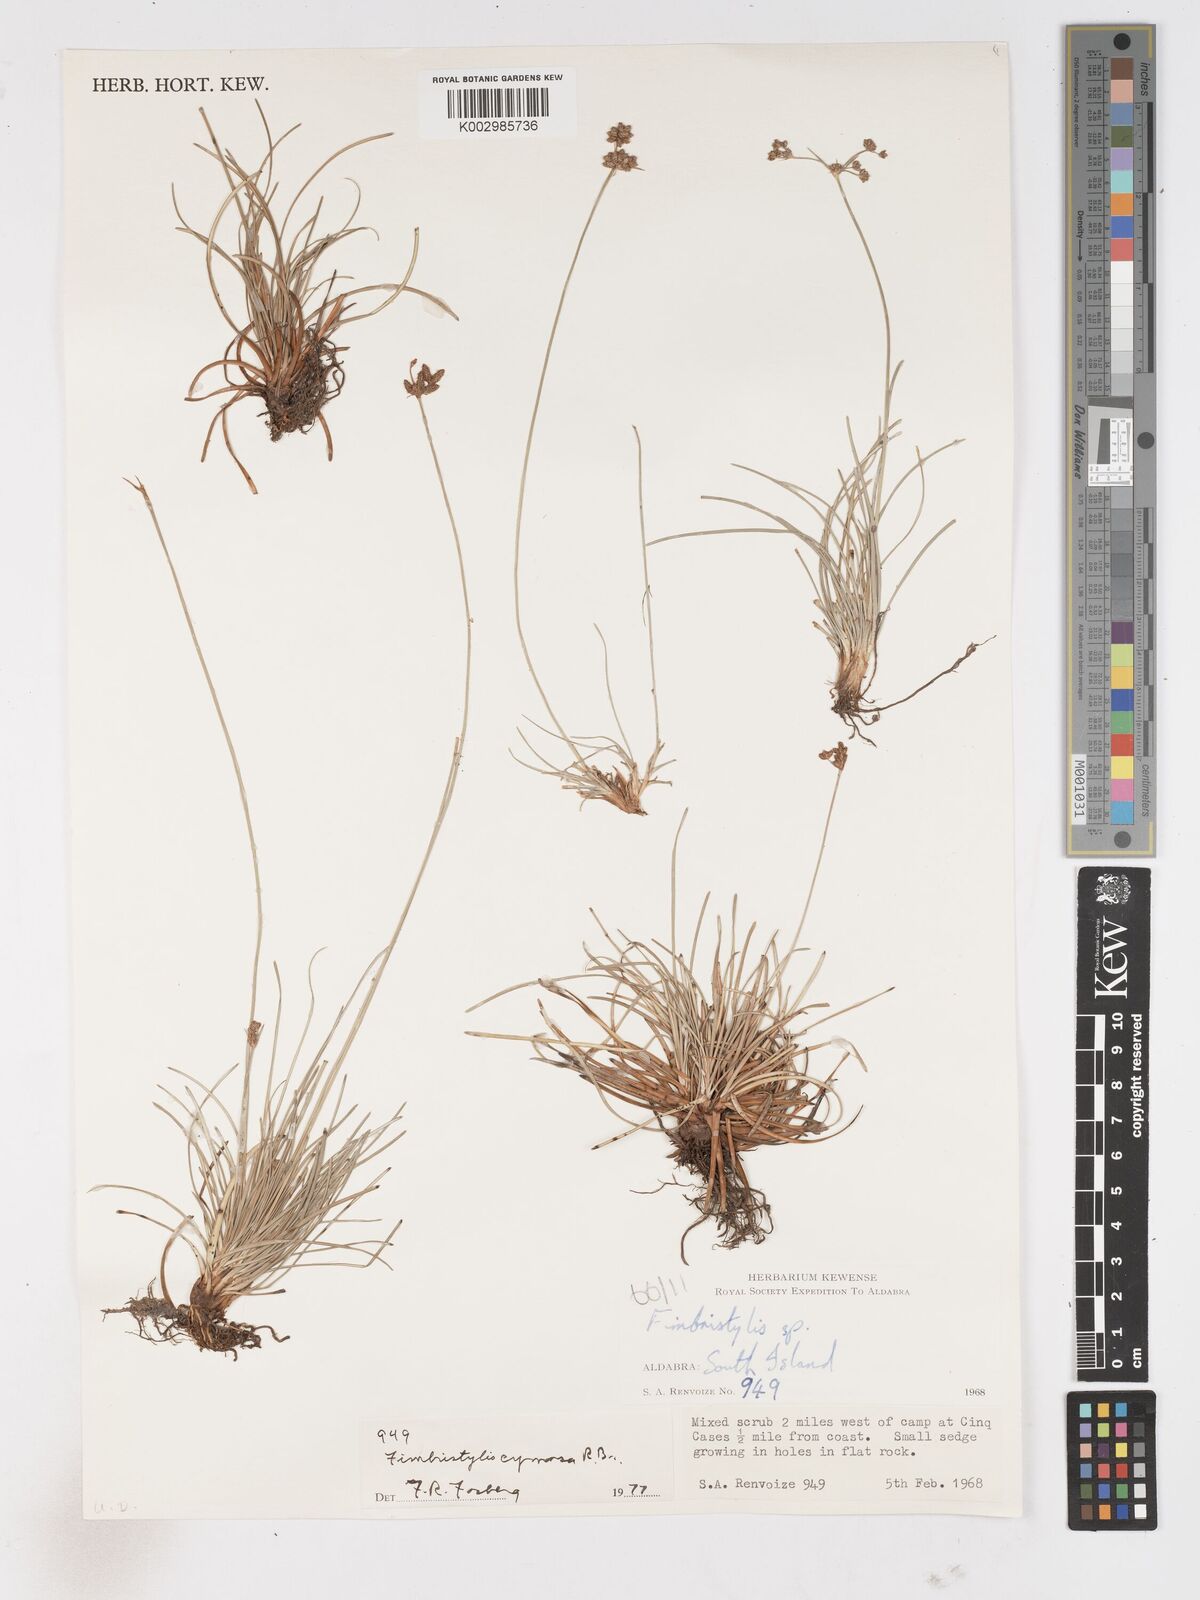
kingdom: Plantae
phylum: Tracheophyta
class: Liliopsida
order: Poales
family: Cyperaceae
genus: Fimbristylis
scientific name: Fimbristylis cymosa
